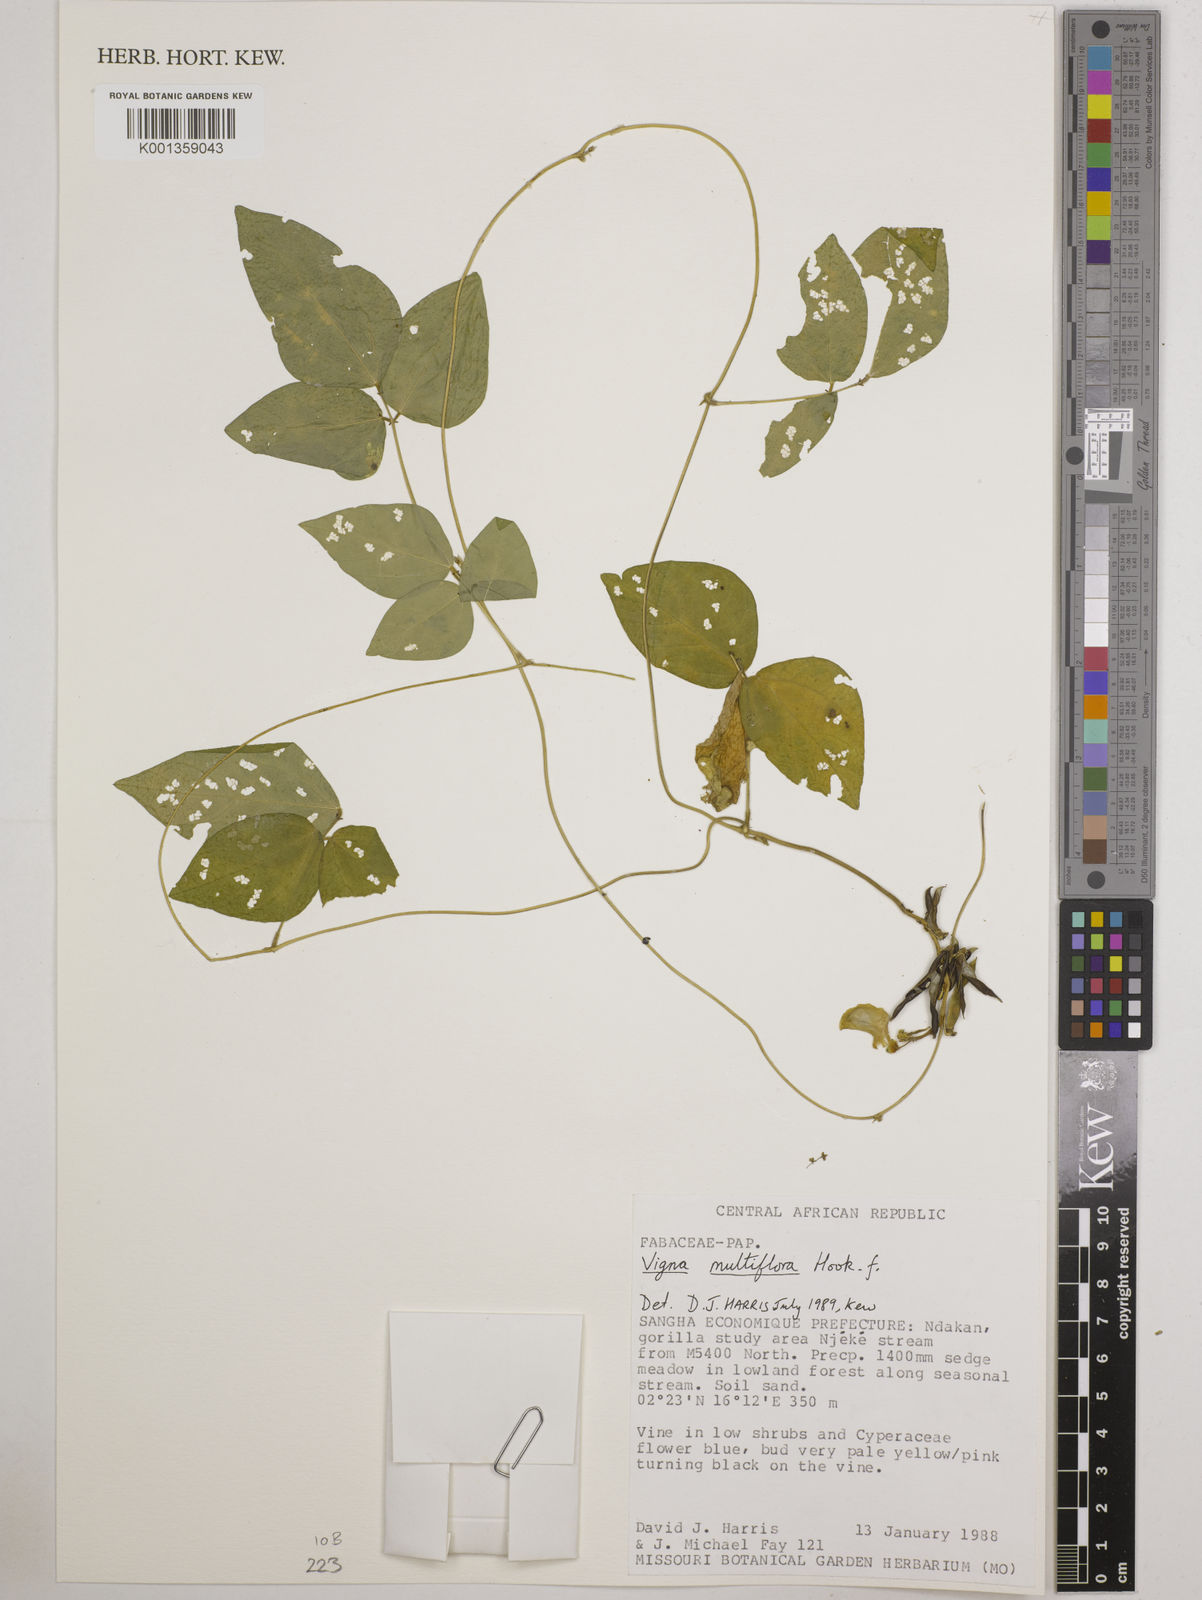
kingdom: Plantae
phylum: Tracheophyta
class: Magnoliopsida
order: Fabales
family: Fabaceae
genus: Vigna
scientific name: Vigna gracilis
